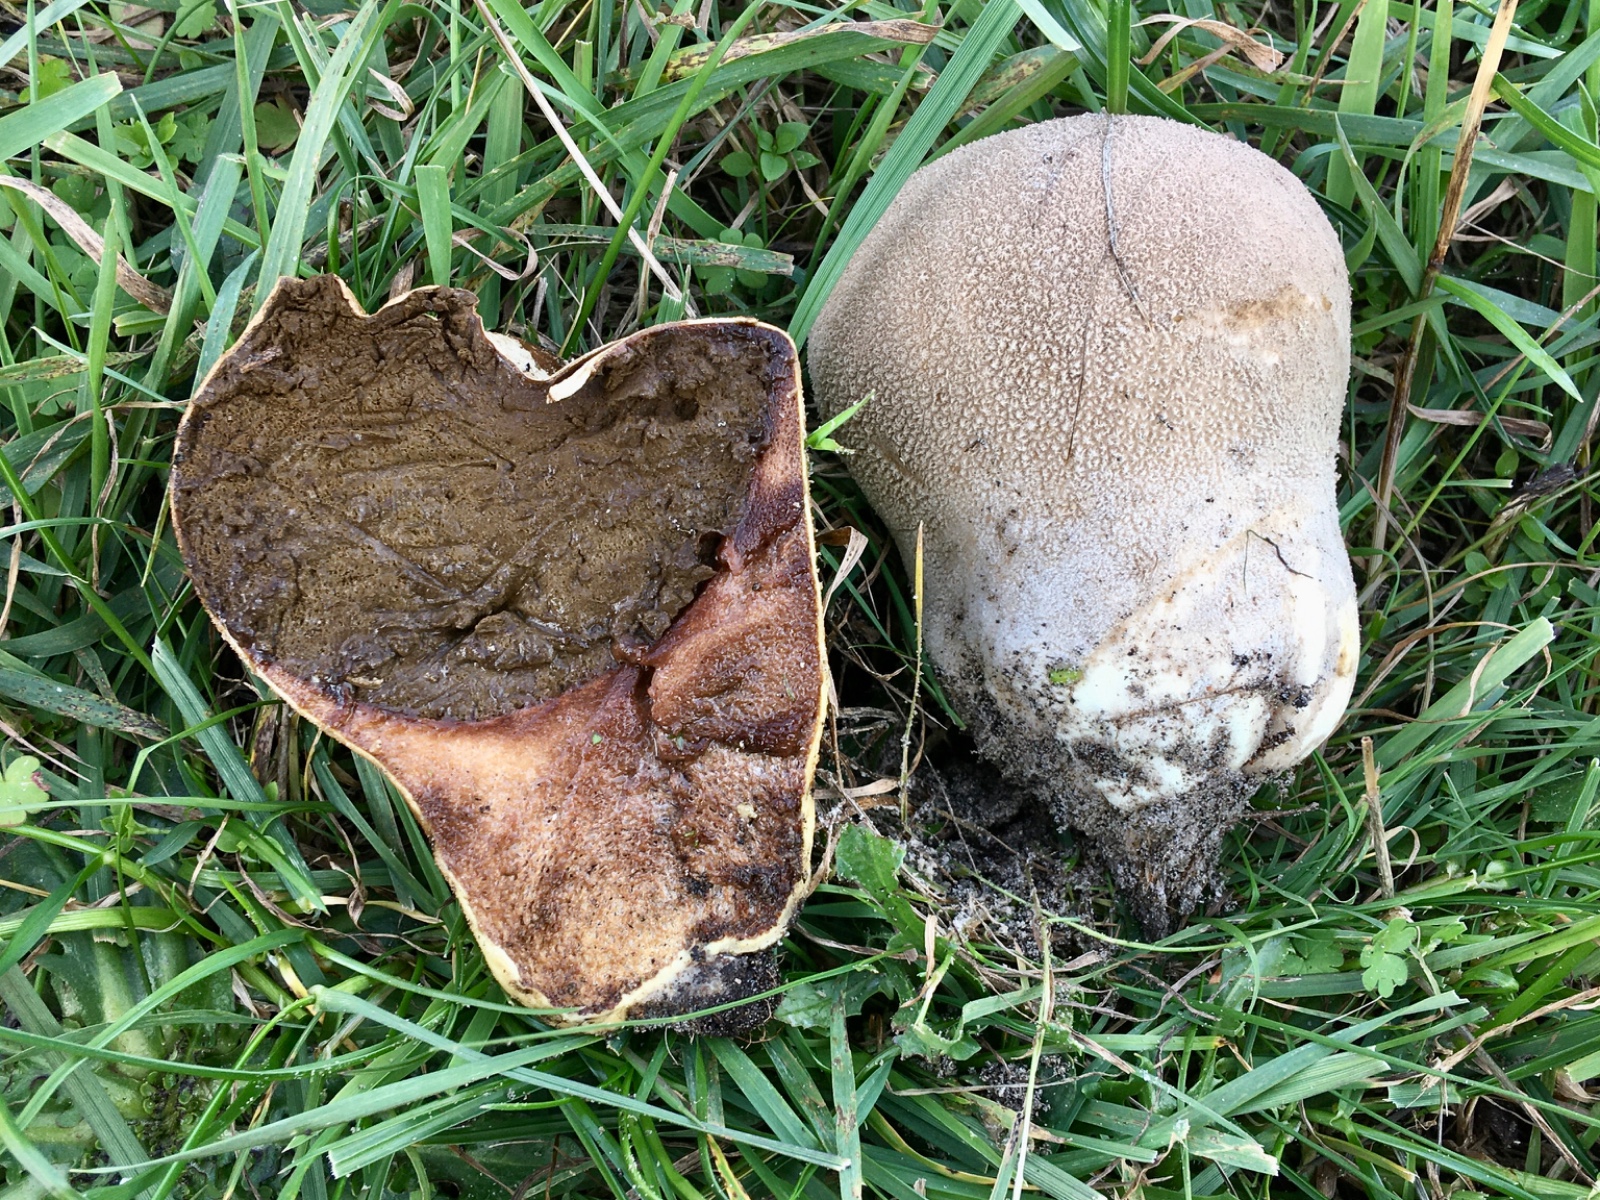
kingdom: Fungi
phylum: Basidiomycota
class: Agaricomycetes
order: Agaricales
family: Lycoperdaceae
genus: Bovistella
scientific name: Bovistella utriformis
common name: skællet støvbold
